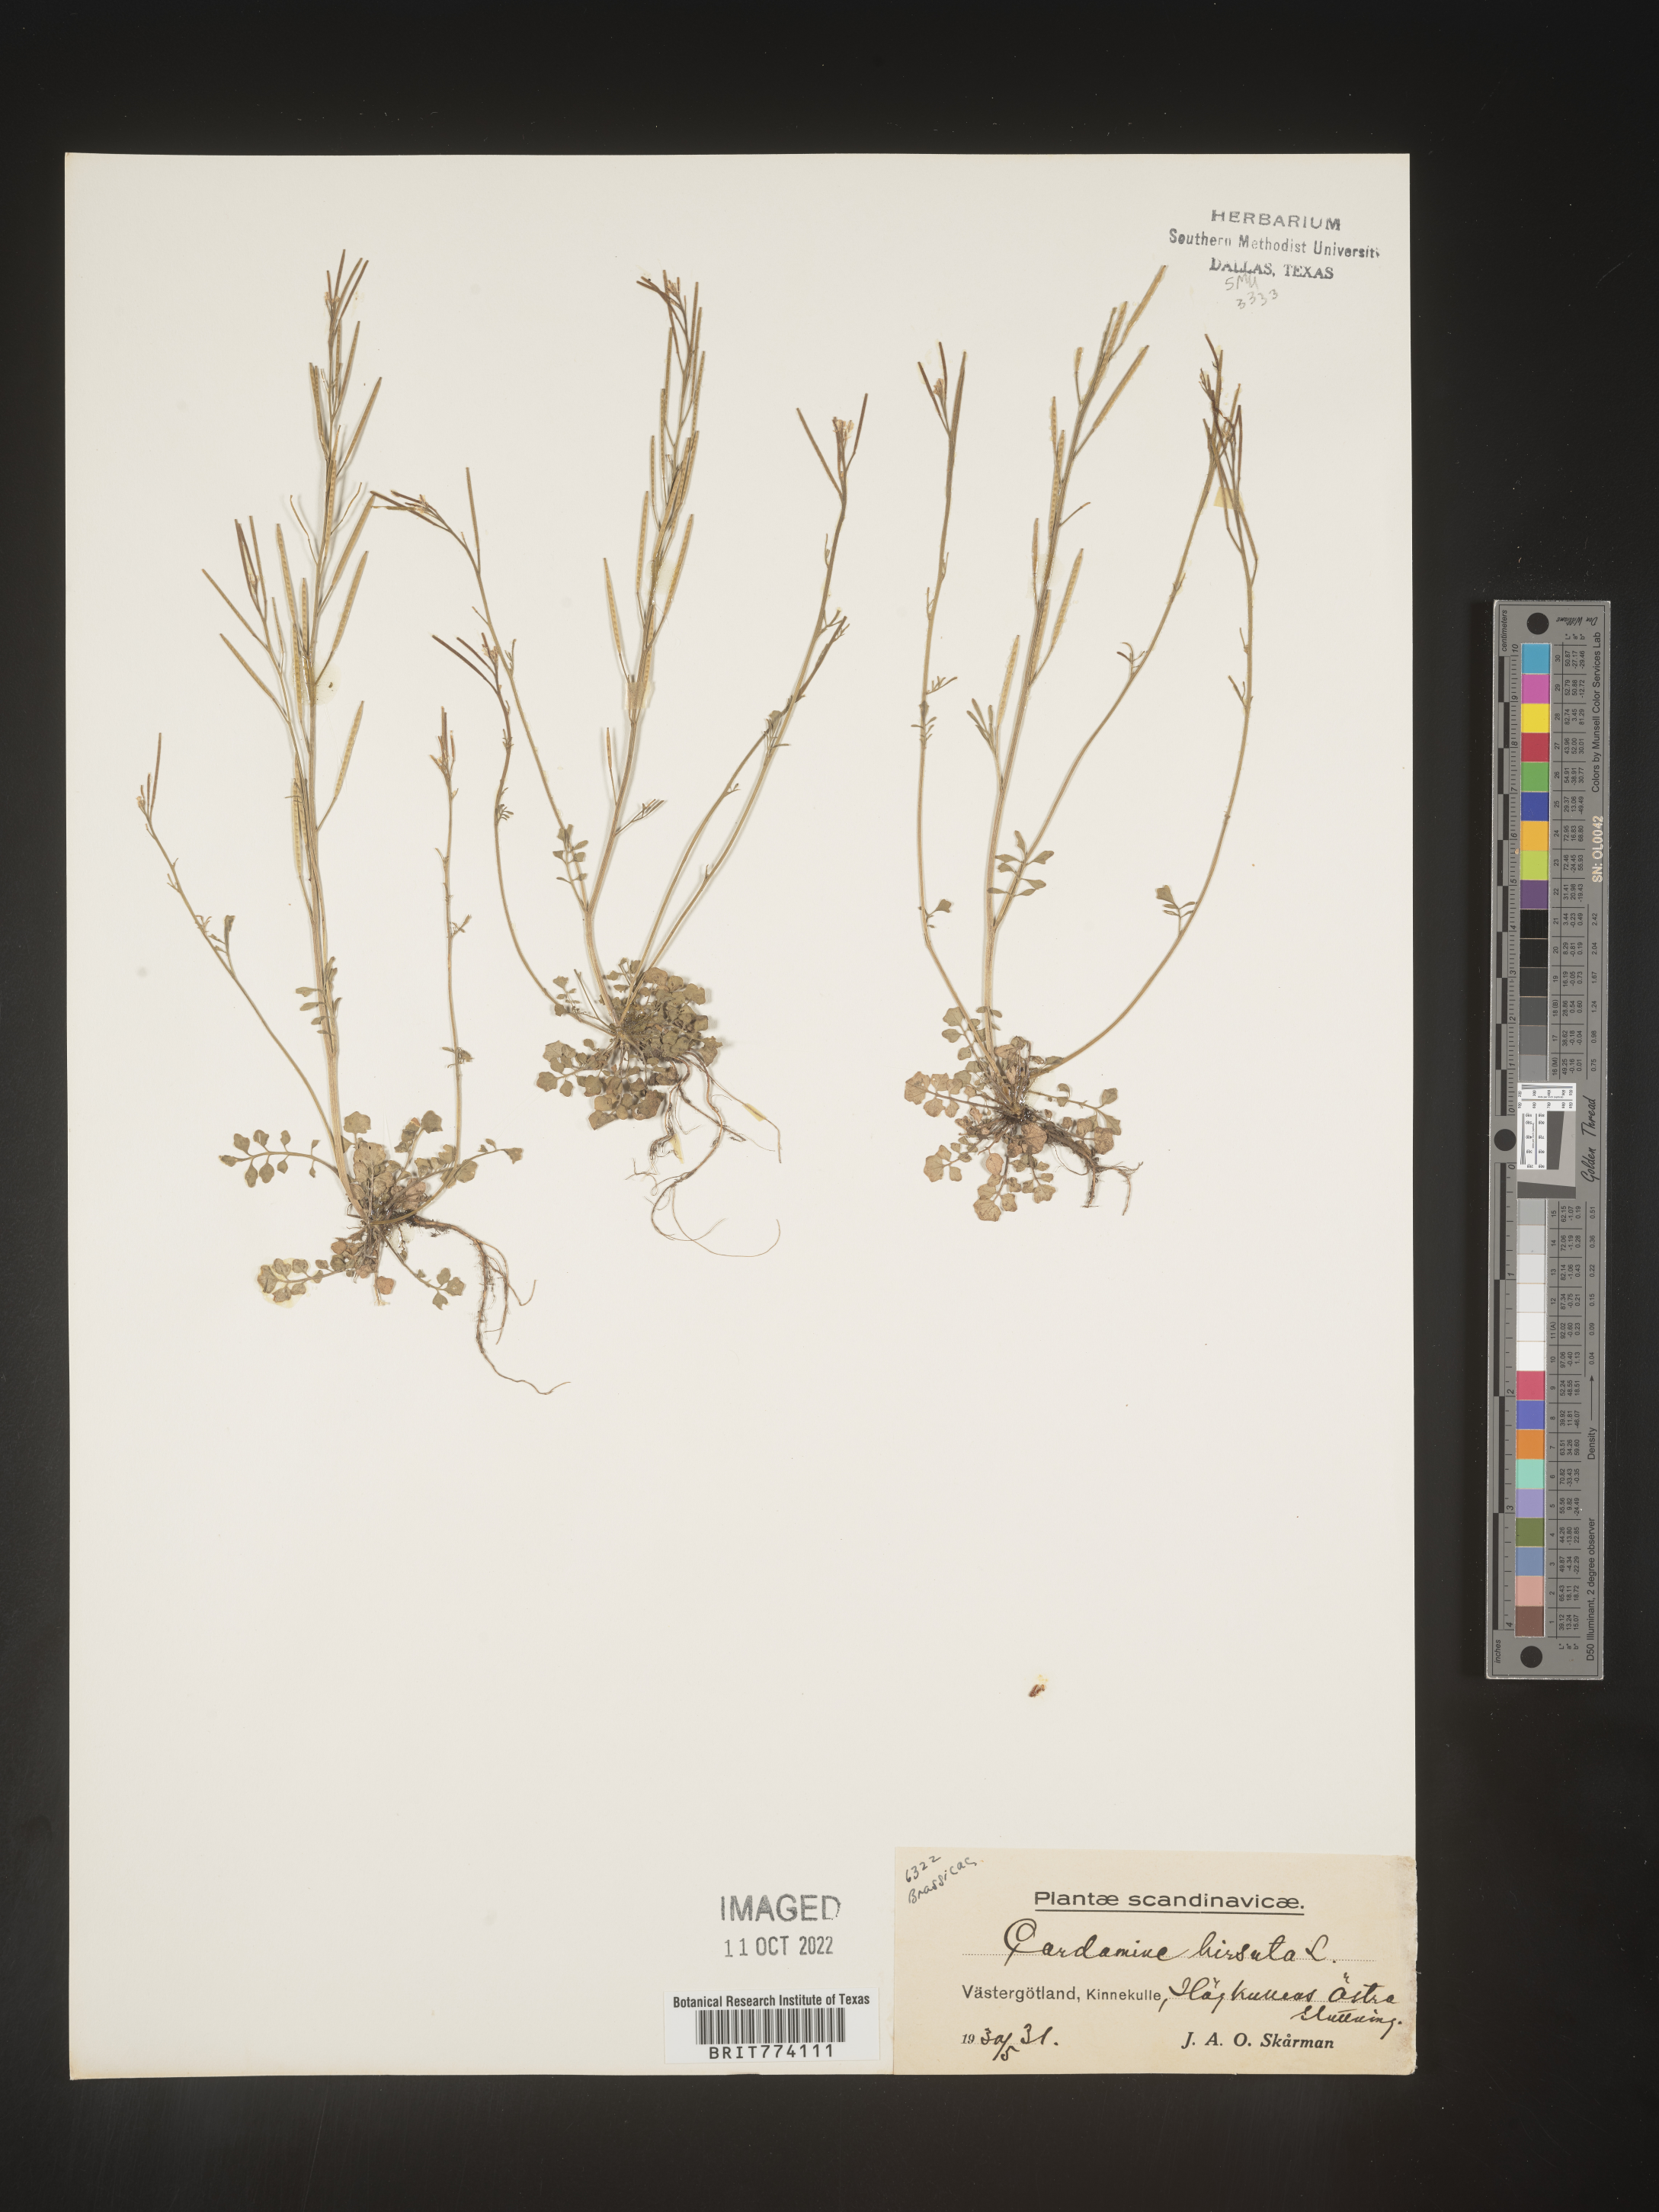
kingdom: Plantae
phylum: Tracheophyta
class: Magnoliopsida
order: Brassicales
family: Brassicaceae
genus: Cardamine
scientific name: Cardamine hirsuta
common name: Hairy bittercress
